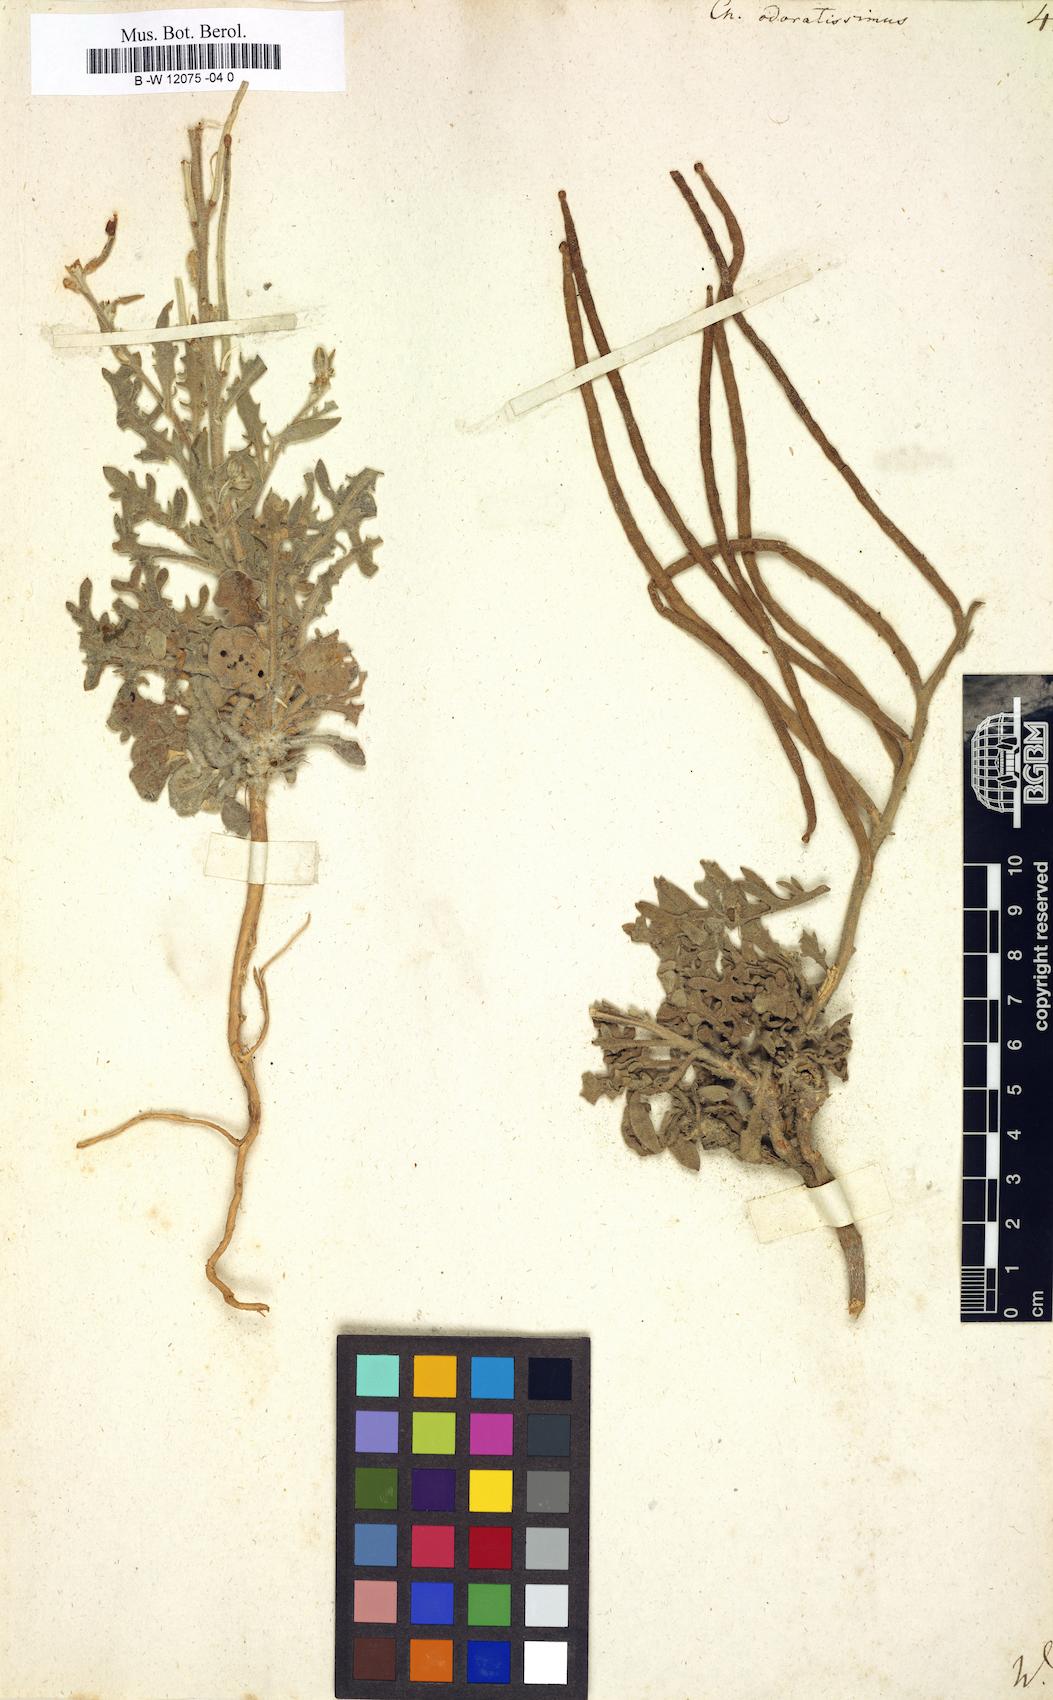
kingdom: Plantae
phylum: Tracheophyta
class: Magnoliopsida
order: Brassicales
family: Brassicaceae
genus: Matthiola
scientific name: Matthiola odoratissima
